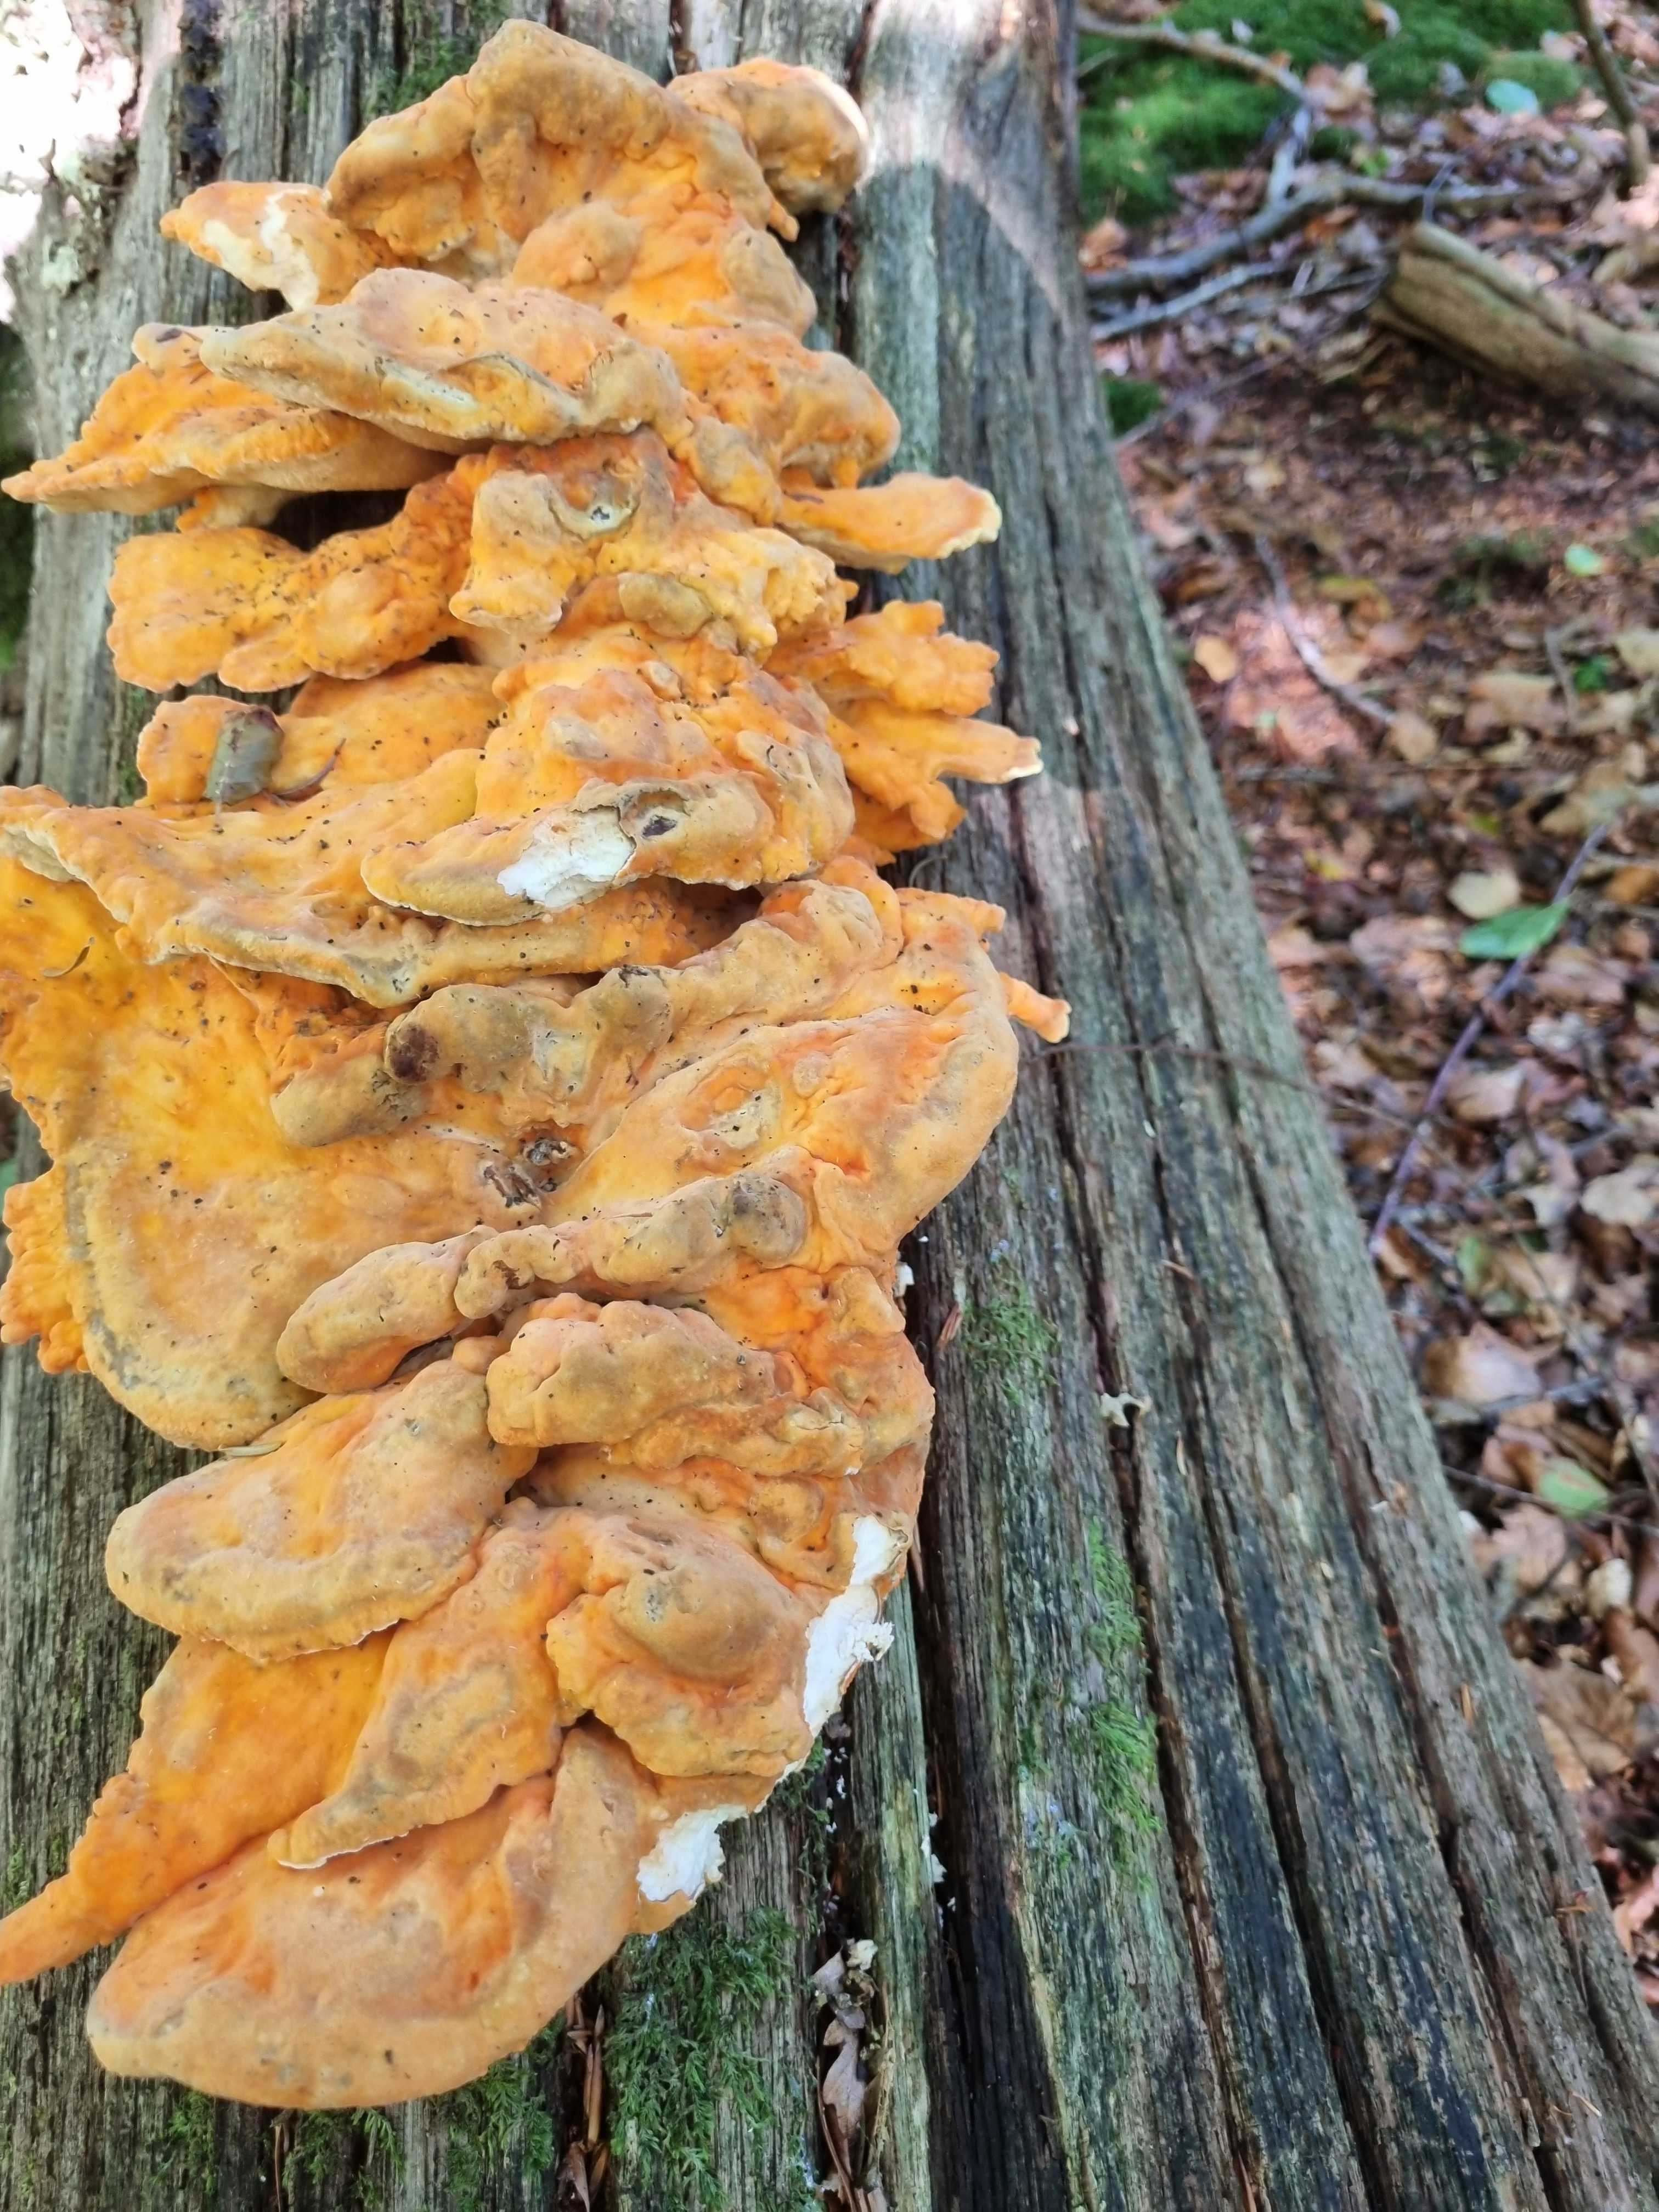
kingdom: Fungi
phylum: Basidiomycota
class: Agaricomycetes
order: Polyporales
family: Laetiporaceae
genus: Laetiporus
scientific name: Laetiporus sulphureus
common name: svovlporesvamp
